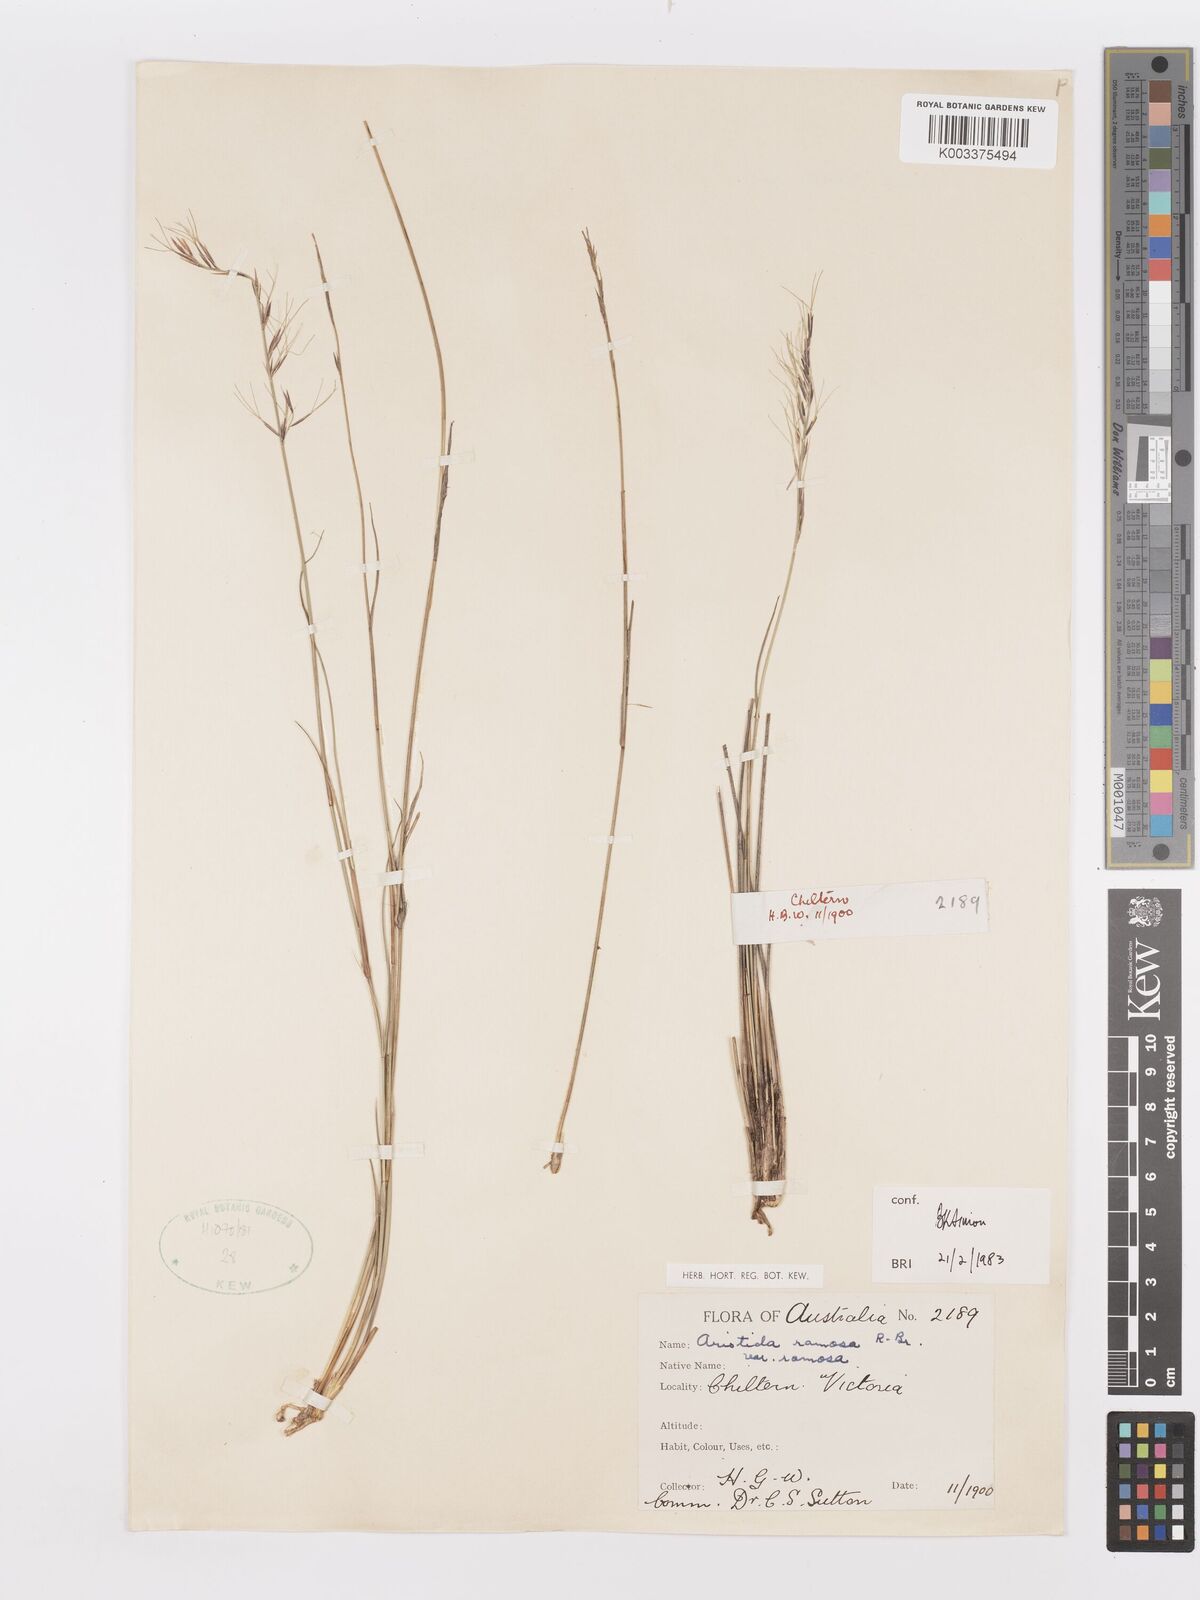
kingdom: Plantae
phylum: Tracheophyta
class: Liliopsida
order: Poales
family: Poaceae
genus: Aristida
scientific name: Aristida ramosa
